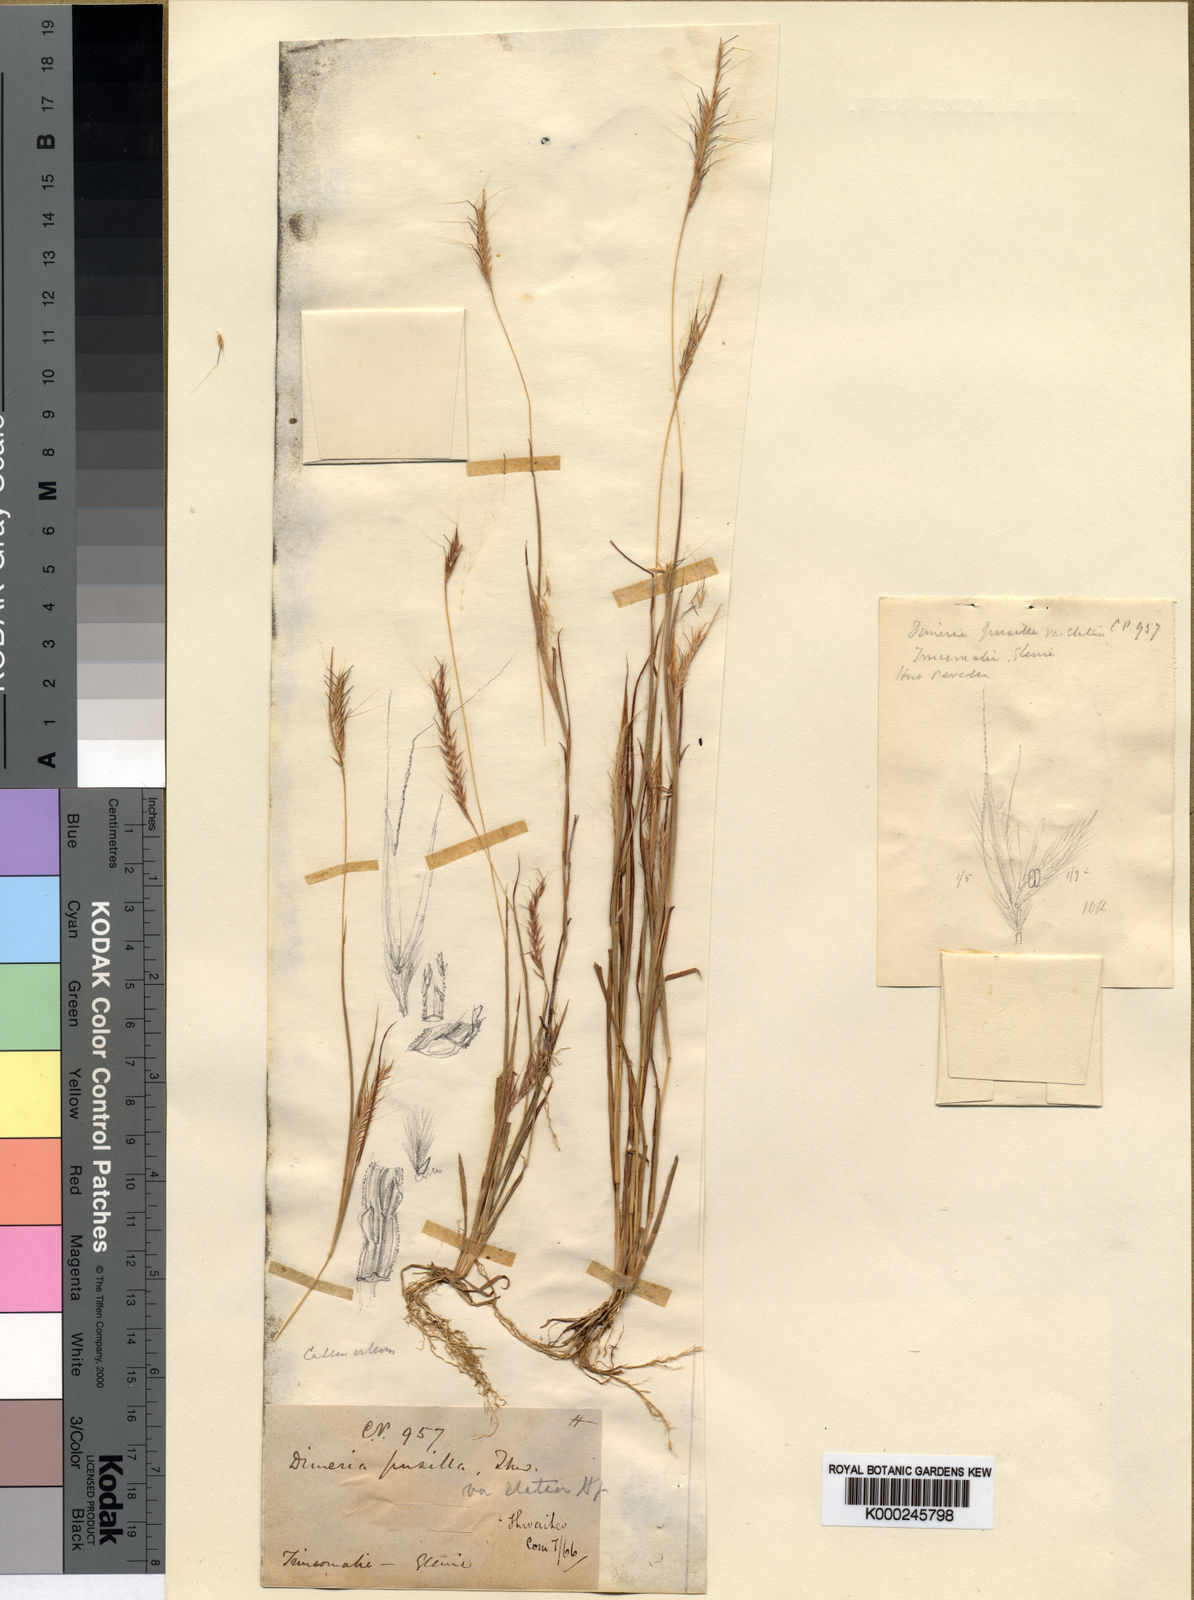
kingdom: Plantae
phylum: Tracheophyta
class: Liliopsida
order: Poales
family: Poaceae
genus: Dimeria
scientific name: Dimeria thwaitesii
